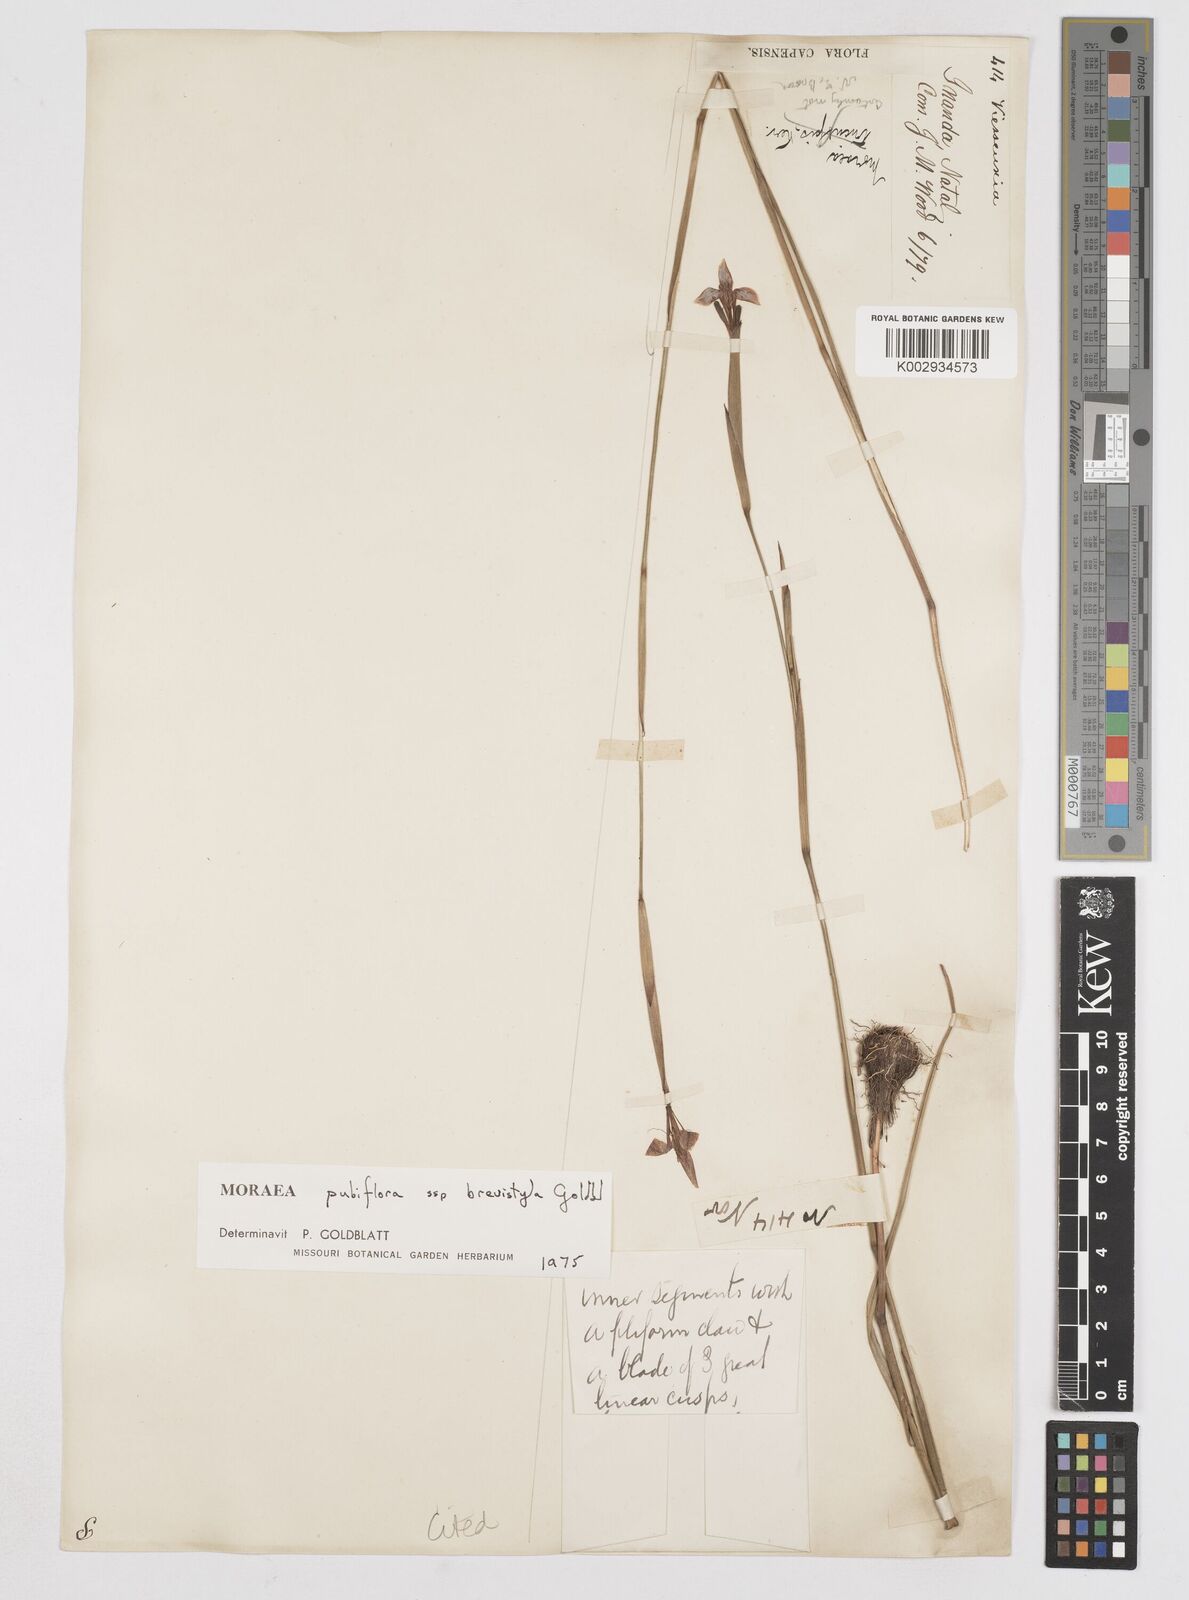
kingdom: Plantae
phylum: Tracheophyta
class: Liliopsida
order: Asparagales
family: Iridaceae
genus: Moraea
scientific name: Moraea brevistyla
